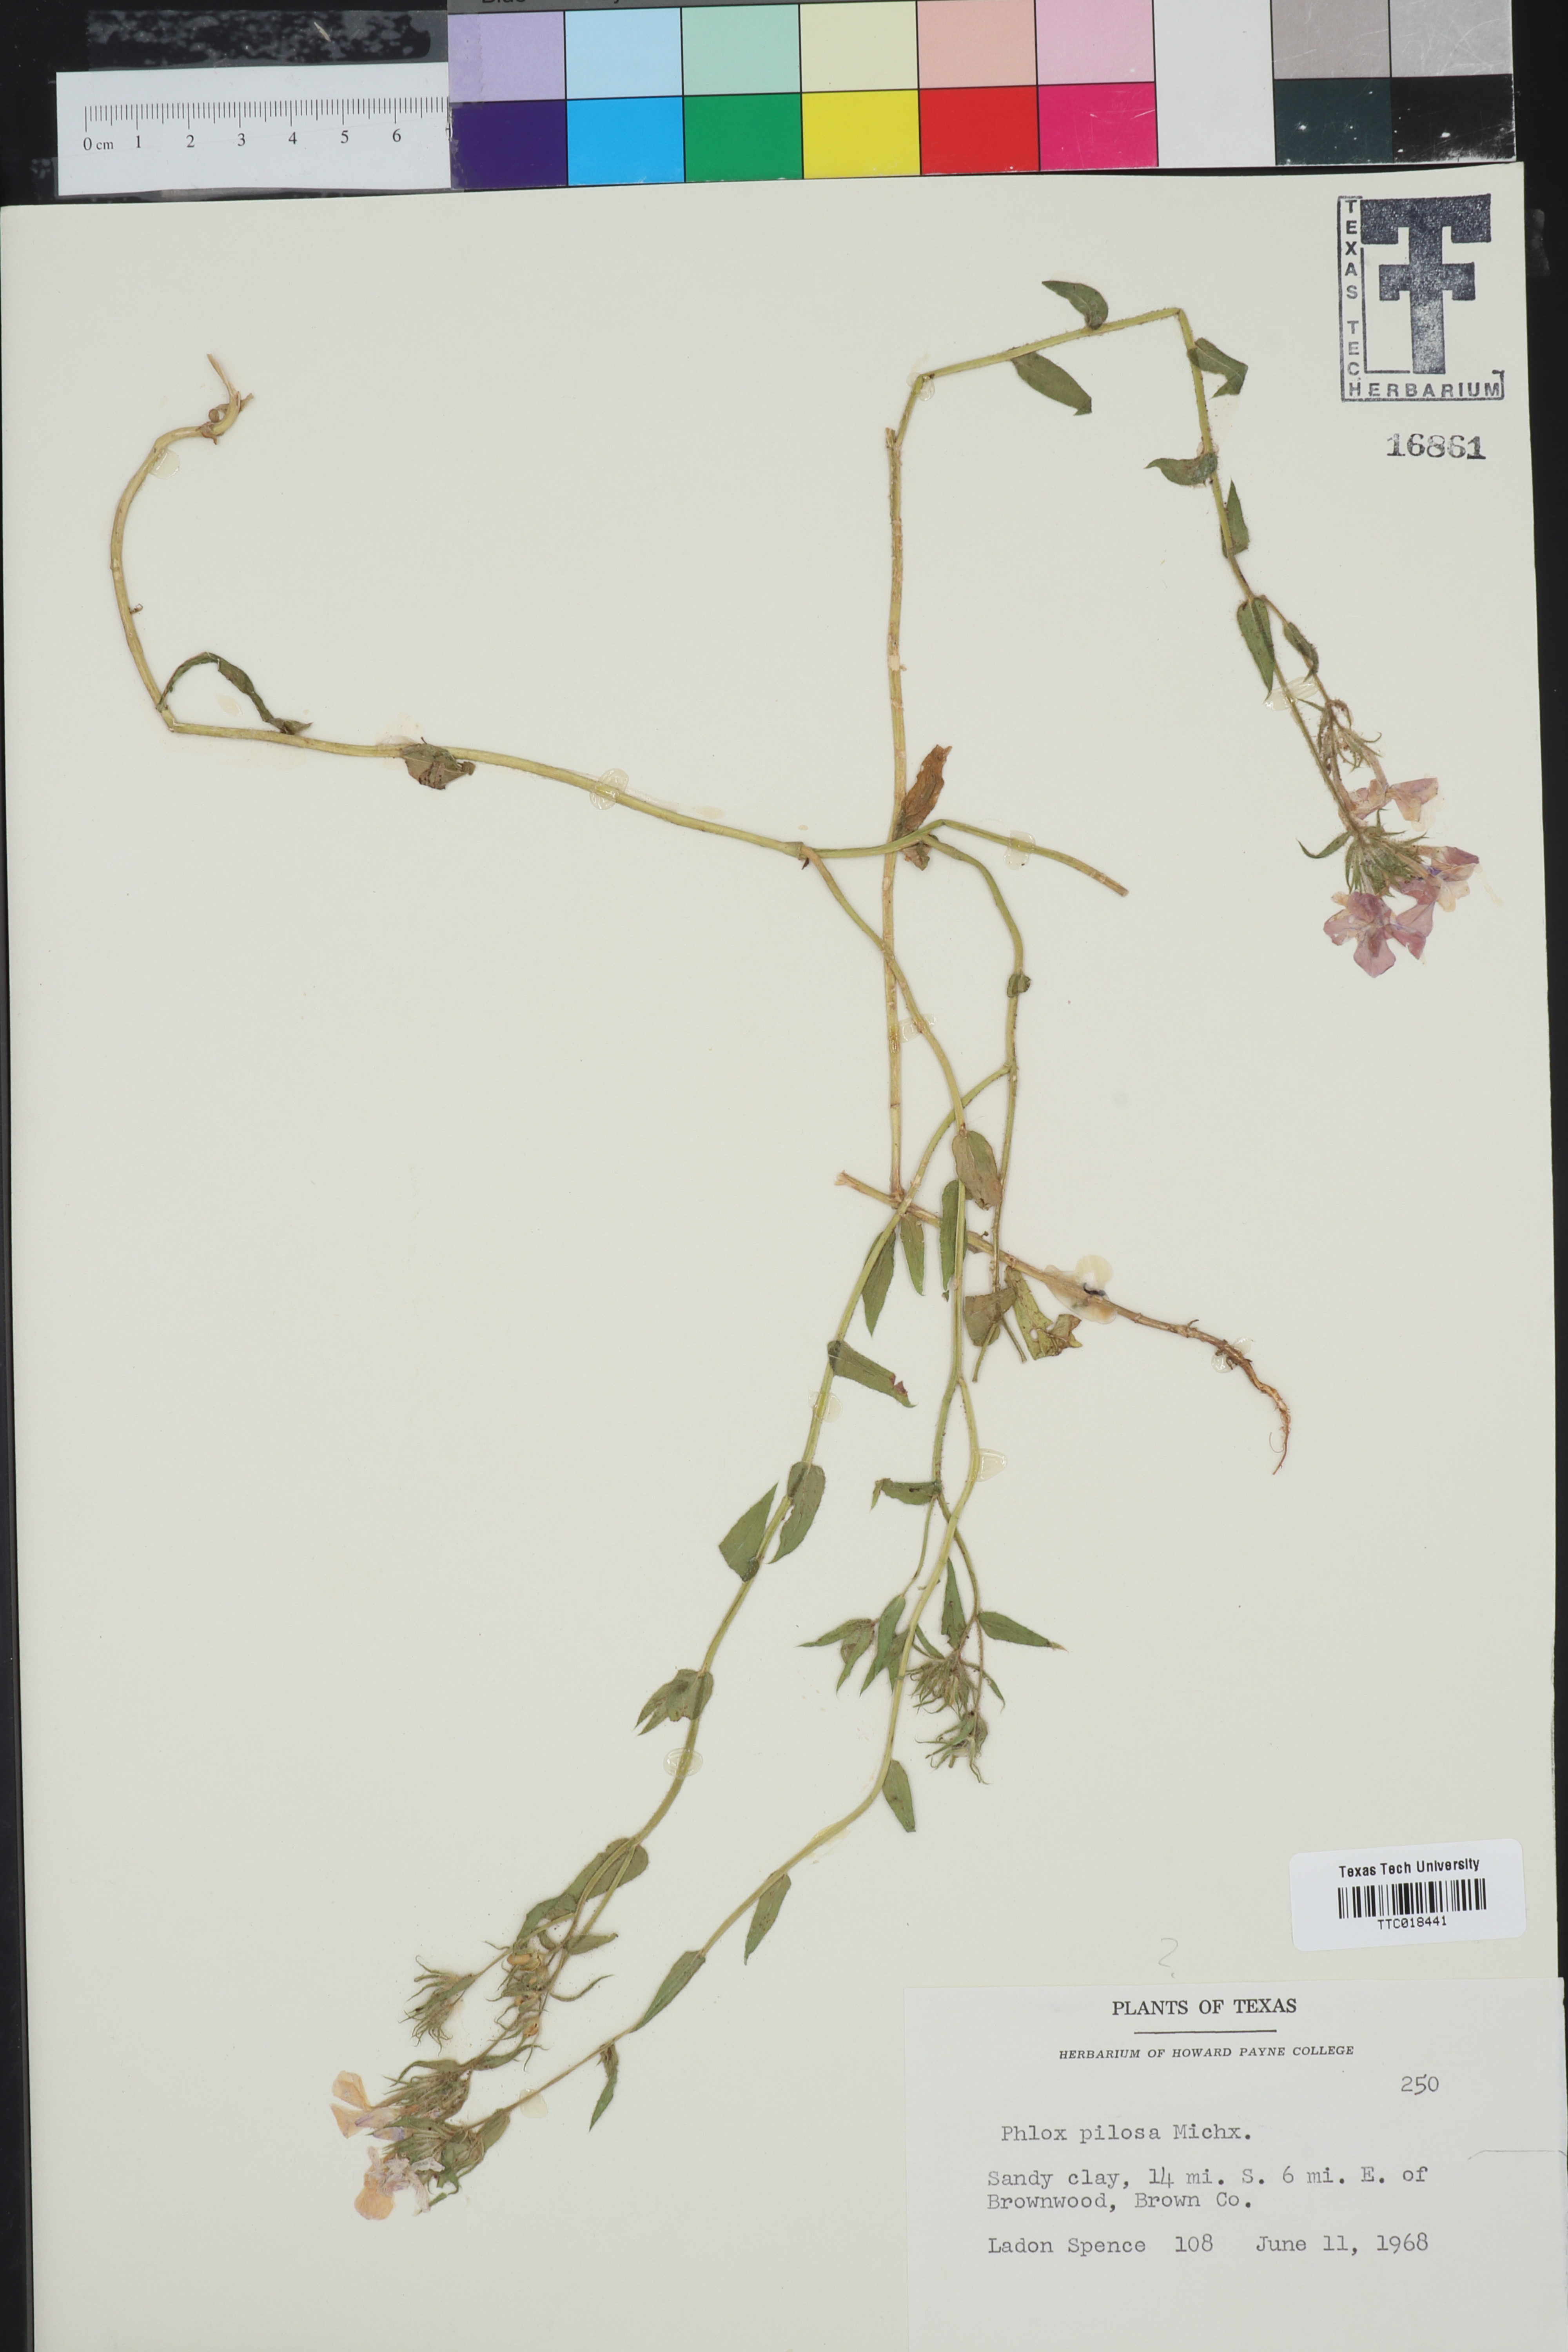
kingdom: Plantae
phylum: Tracheophyta
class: Magnoliopsida
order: Ericales
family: Polemoniaceae
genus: Phlox
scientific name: Phlox pilosa
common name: Prairie phlox
